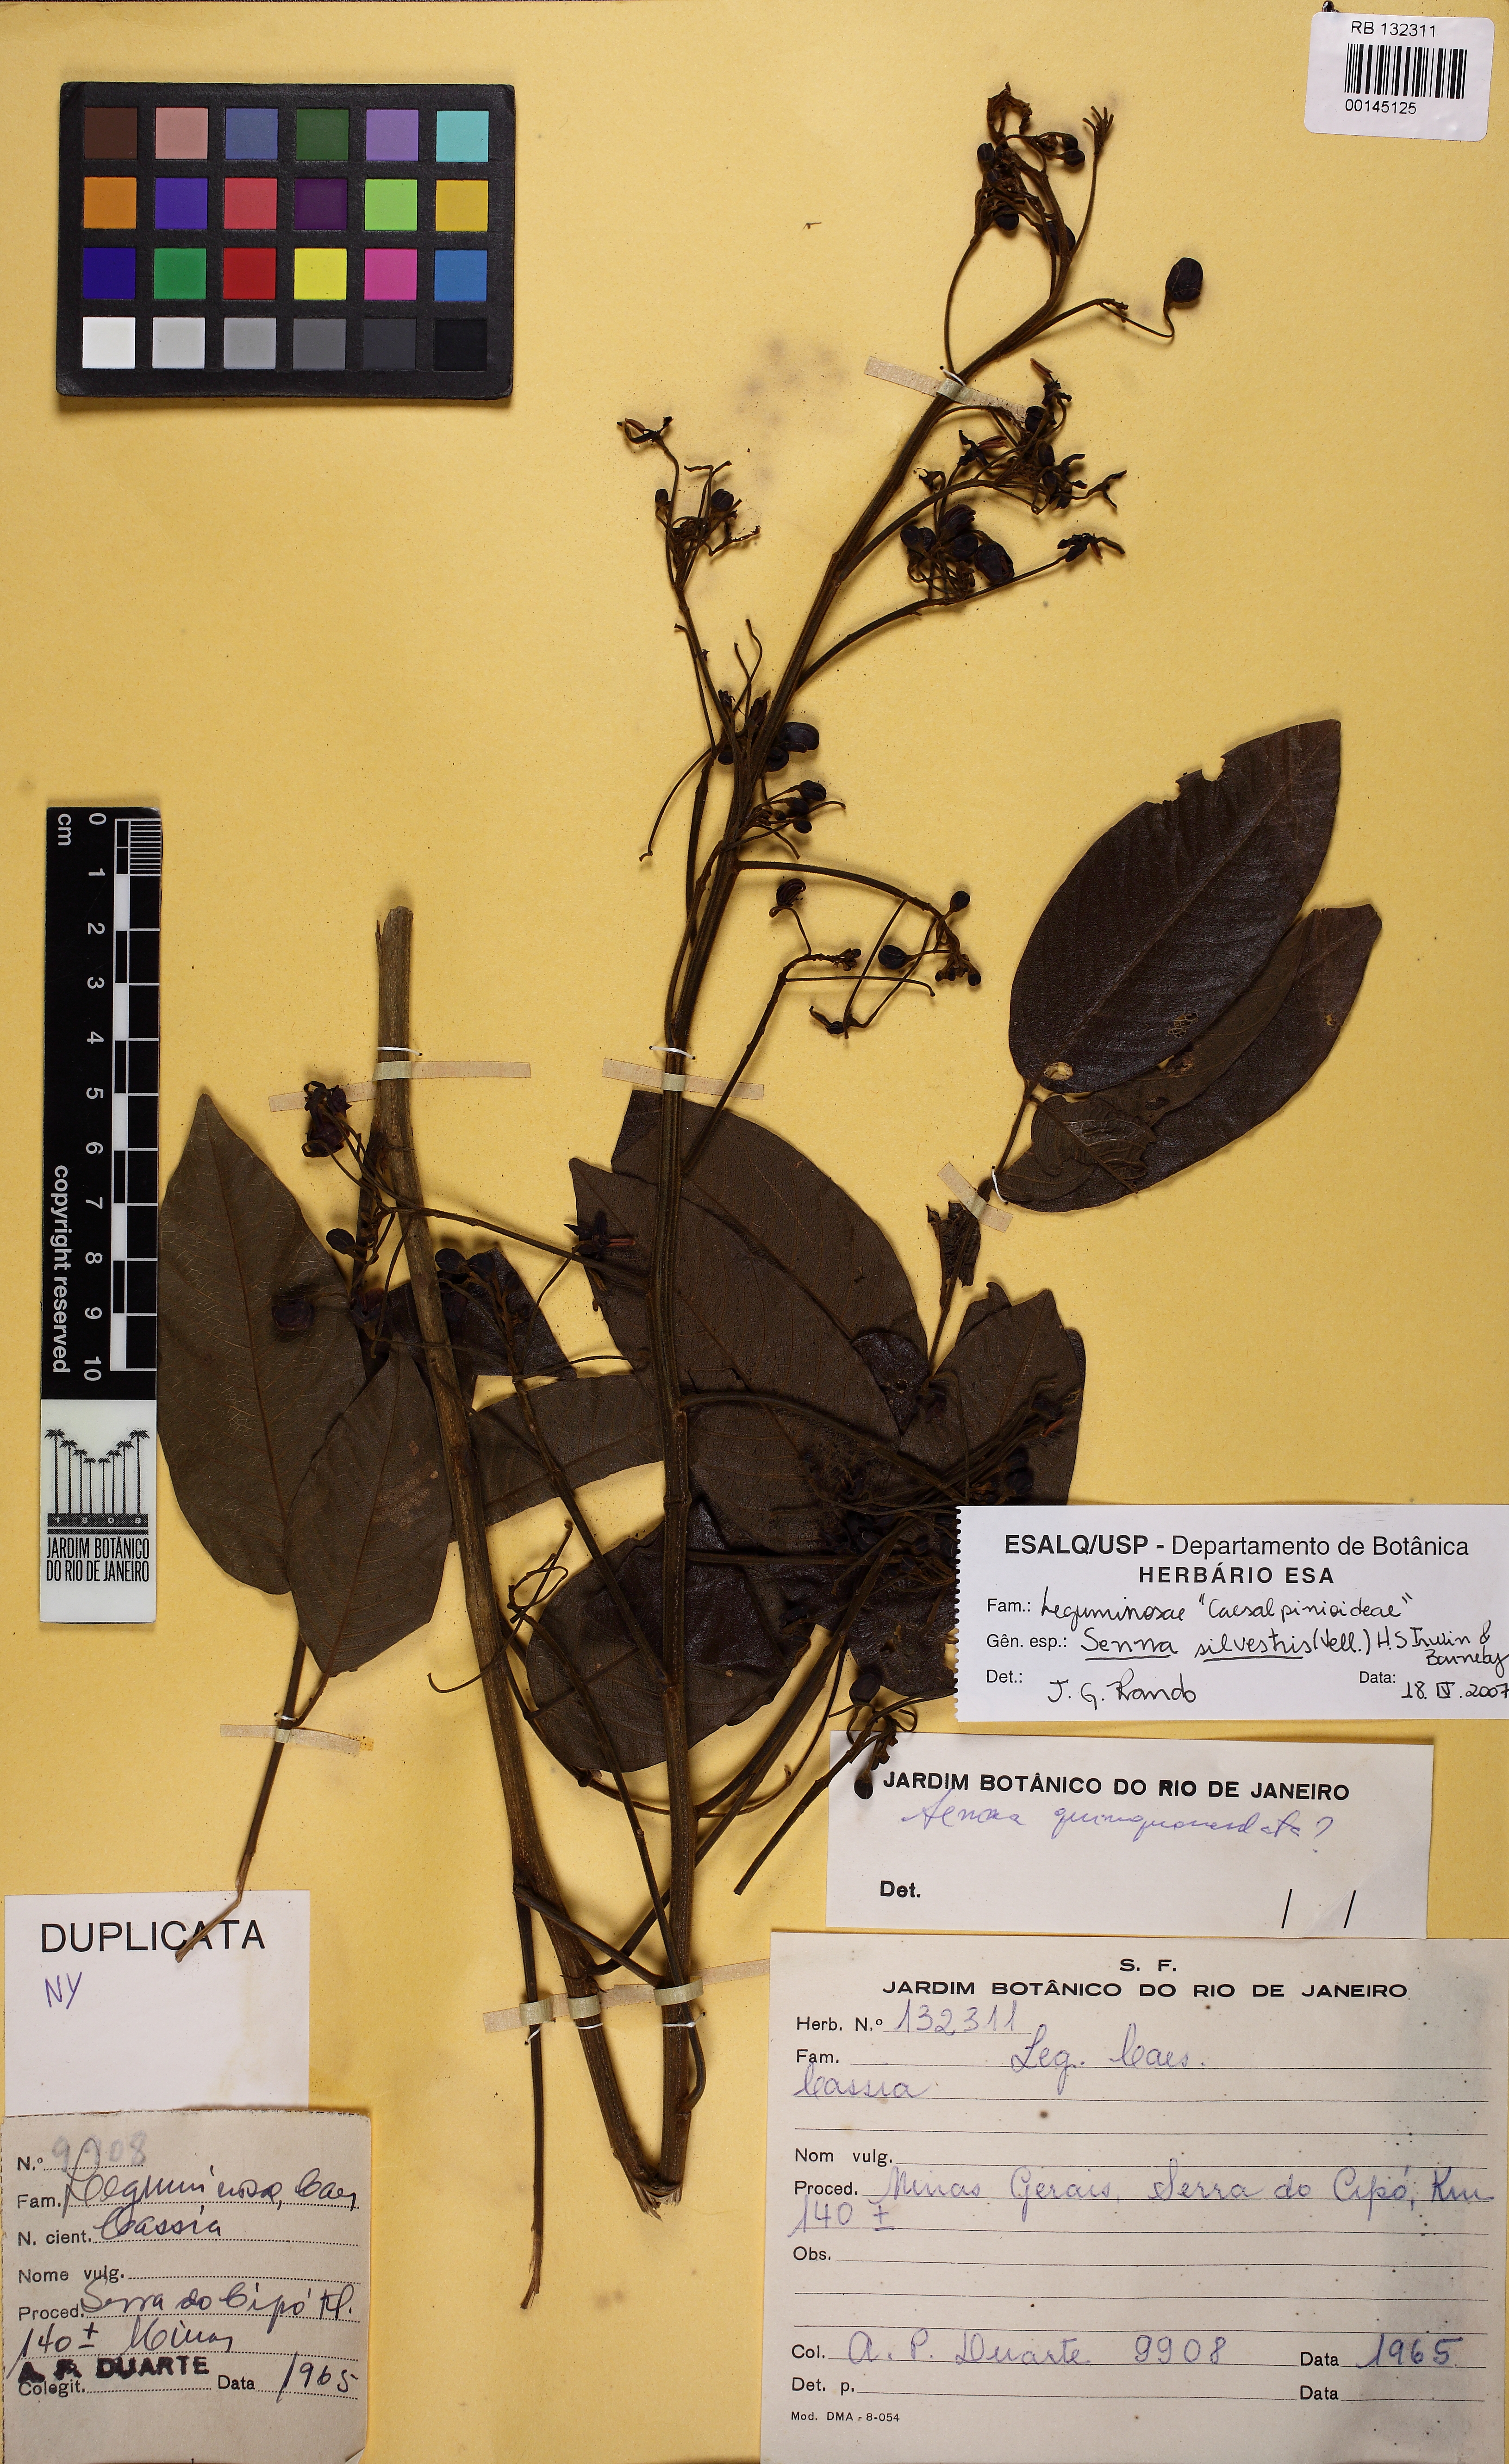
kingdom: Plantae
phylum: Tracheophyta
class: Magnoliopsida
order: Fabales
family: Fabaceae
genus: Senna
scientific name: Senna silvestris
